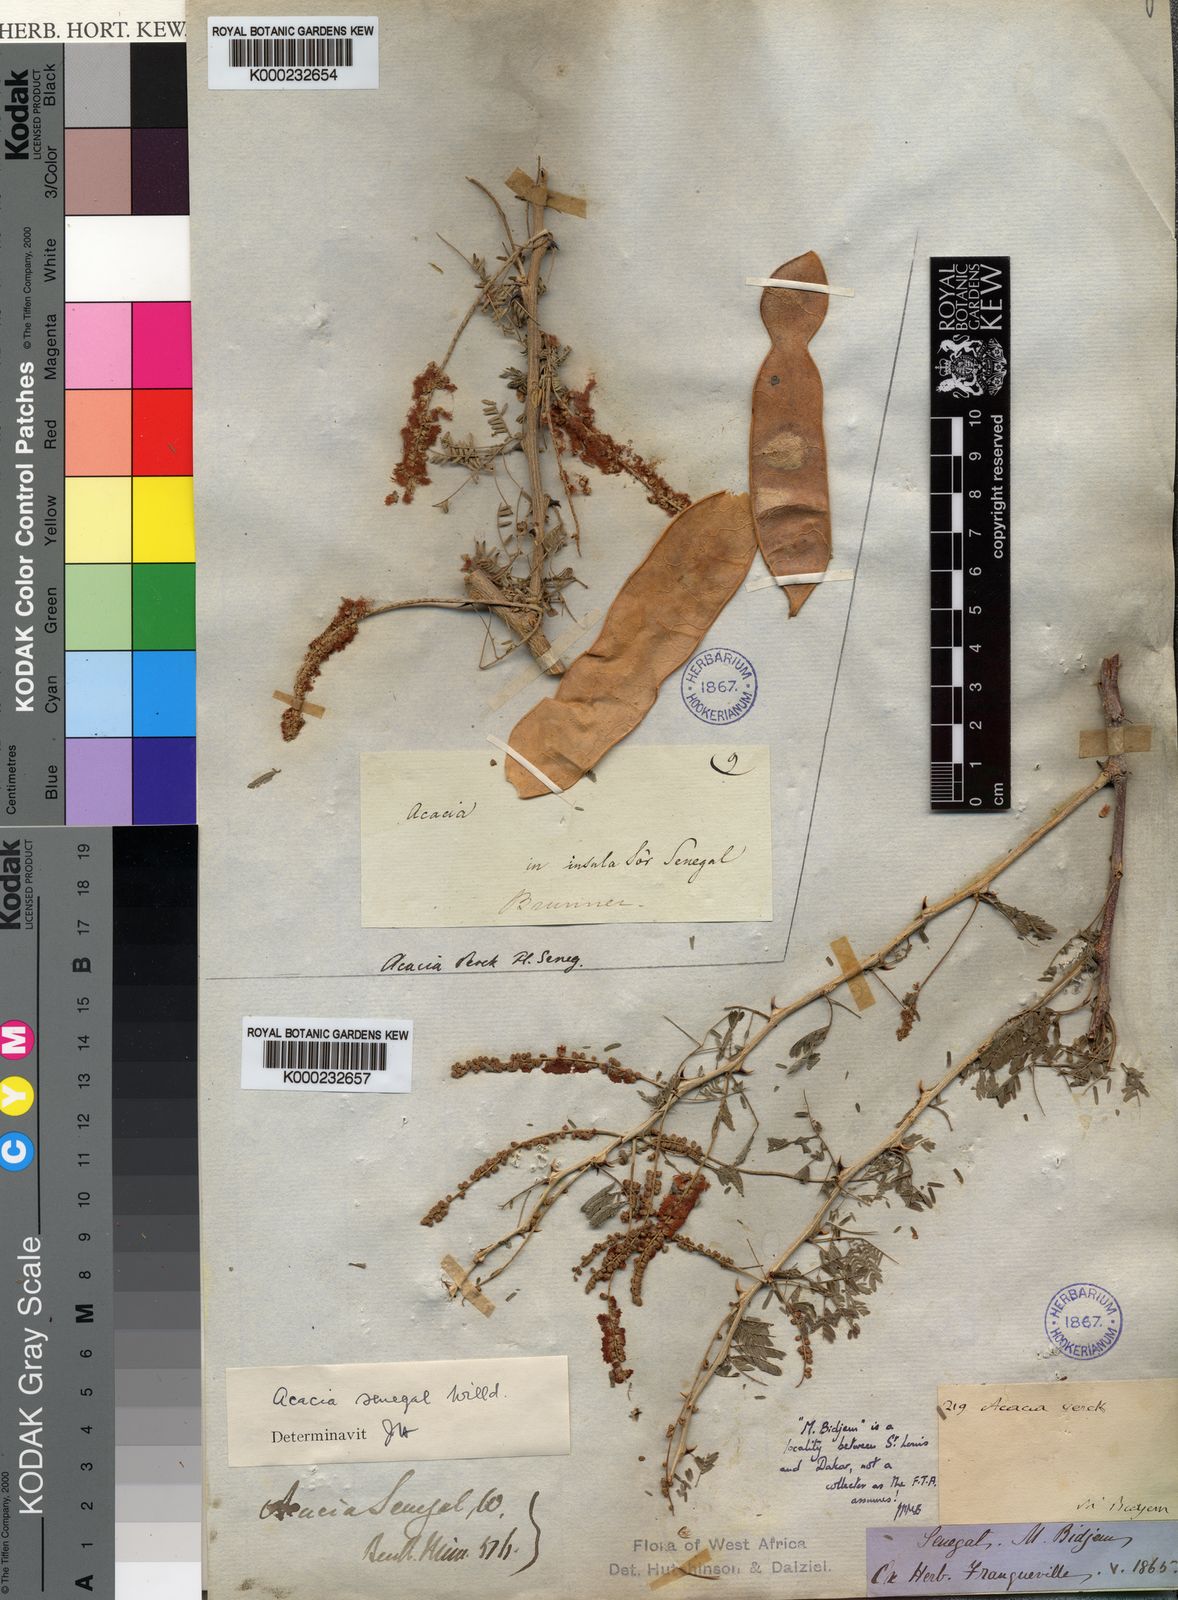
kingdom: Plantae
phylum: Tracheophyta
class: Magnoliopsida
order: Fabales
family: Fabaceae
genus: Senegalia
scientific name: Senegalia senegal
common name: Senegal-gum
